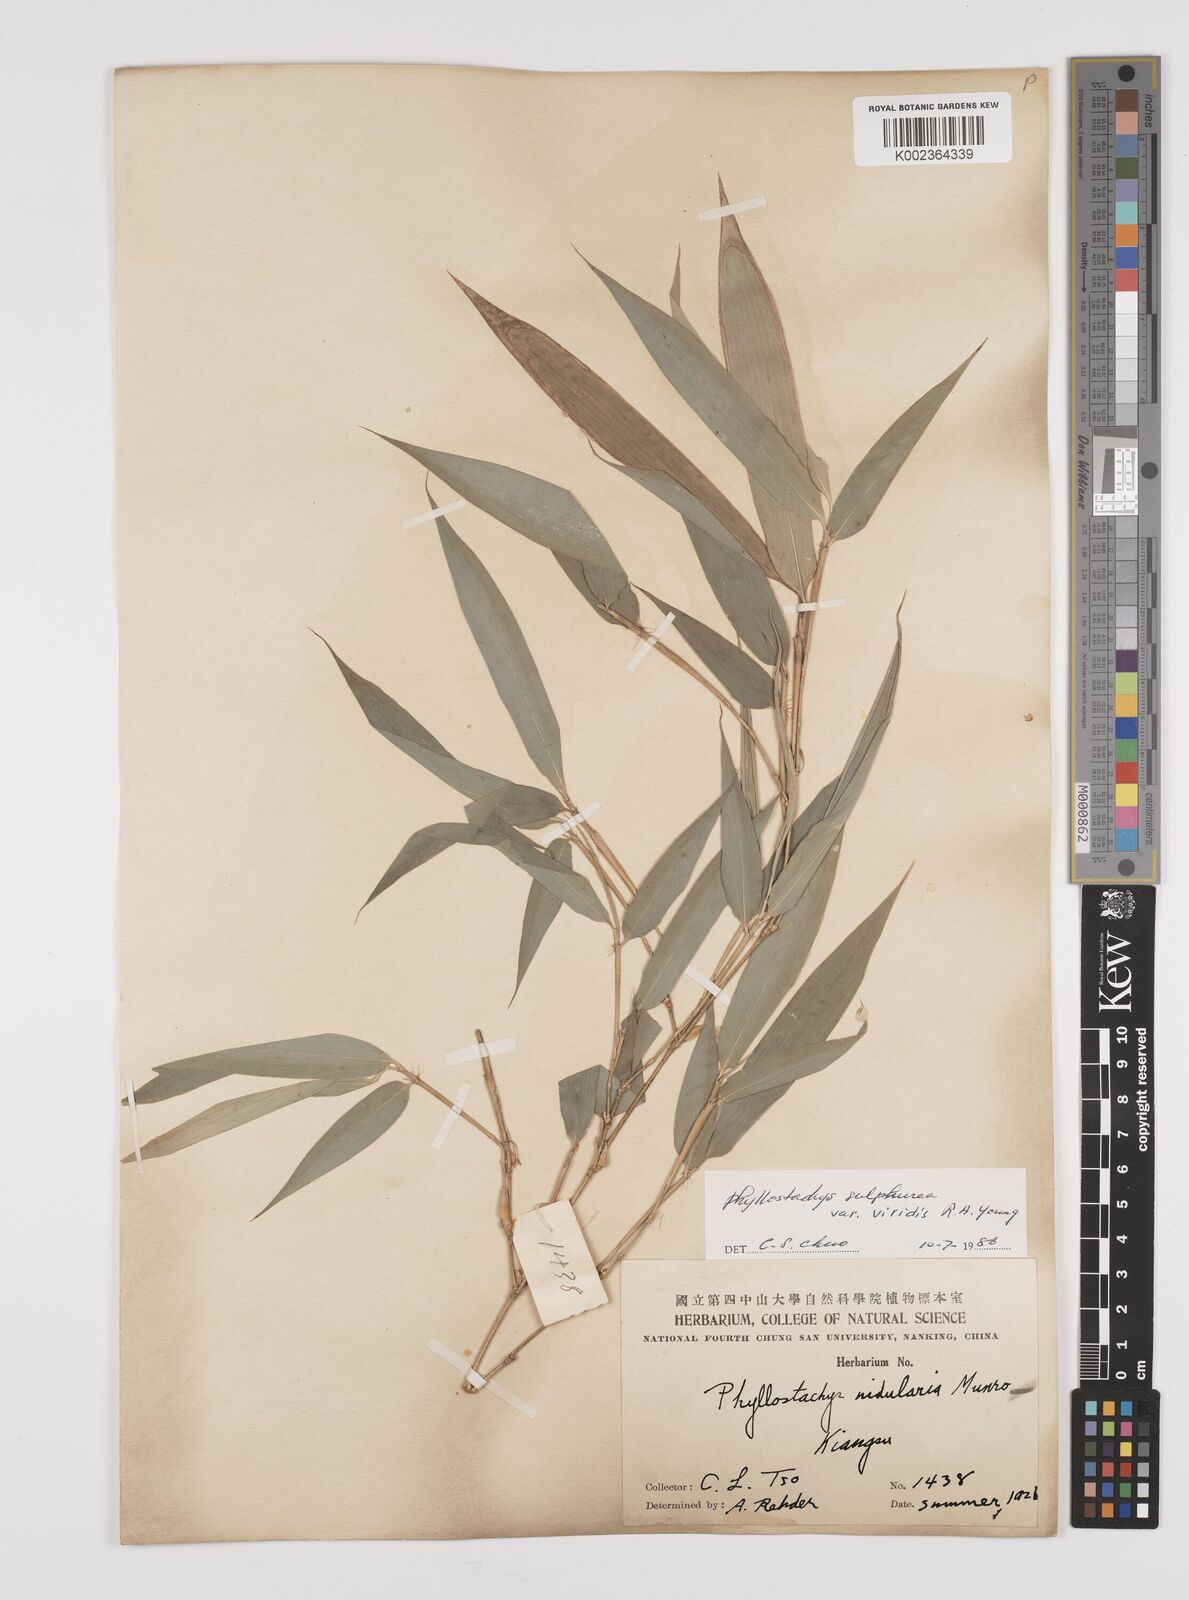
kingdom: Plantae
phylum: Tracheophyta
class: Liliopsida
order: Poales
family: Poaceae
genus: Phyllostachys
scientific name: Phyllostachys sulphurea
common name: Sulphur bamboo
